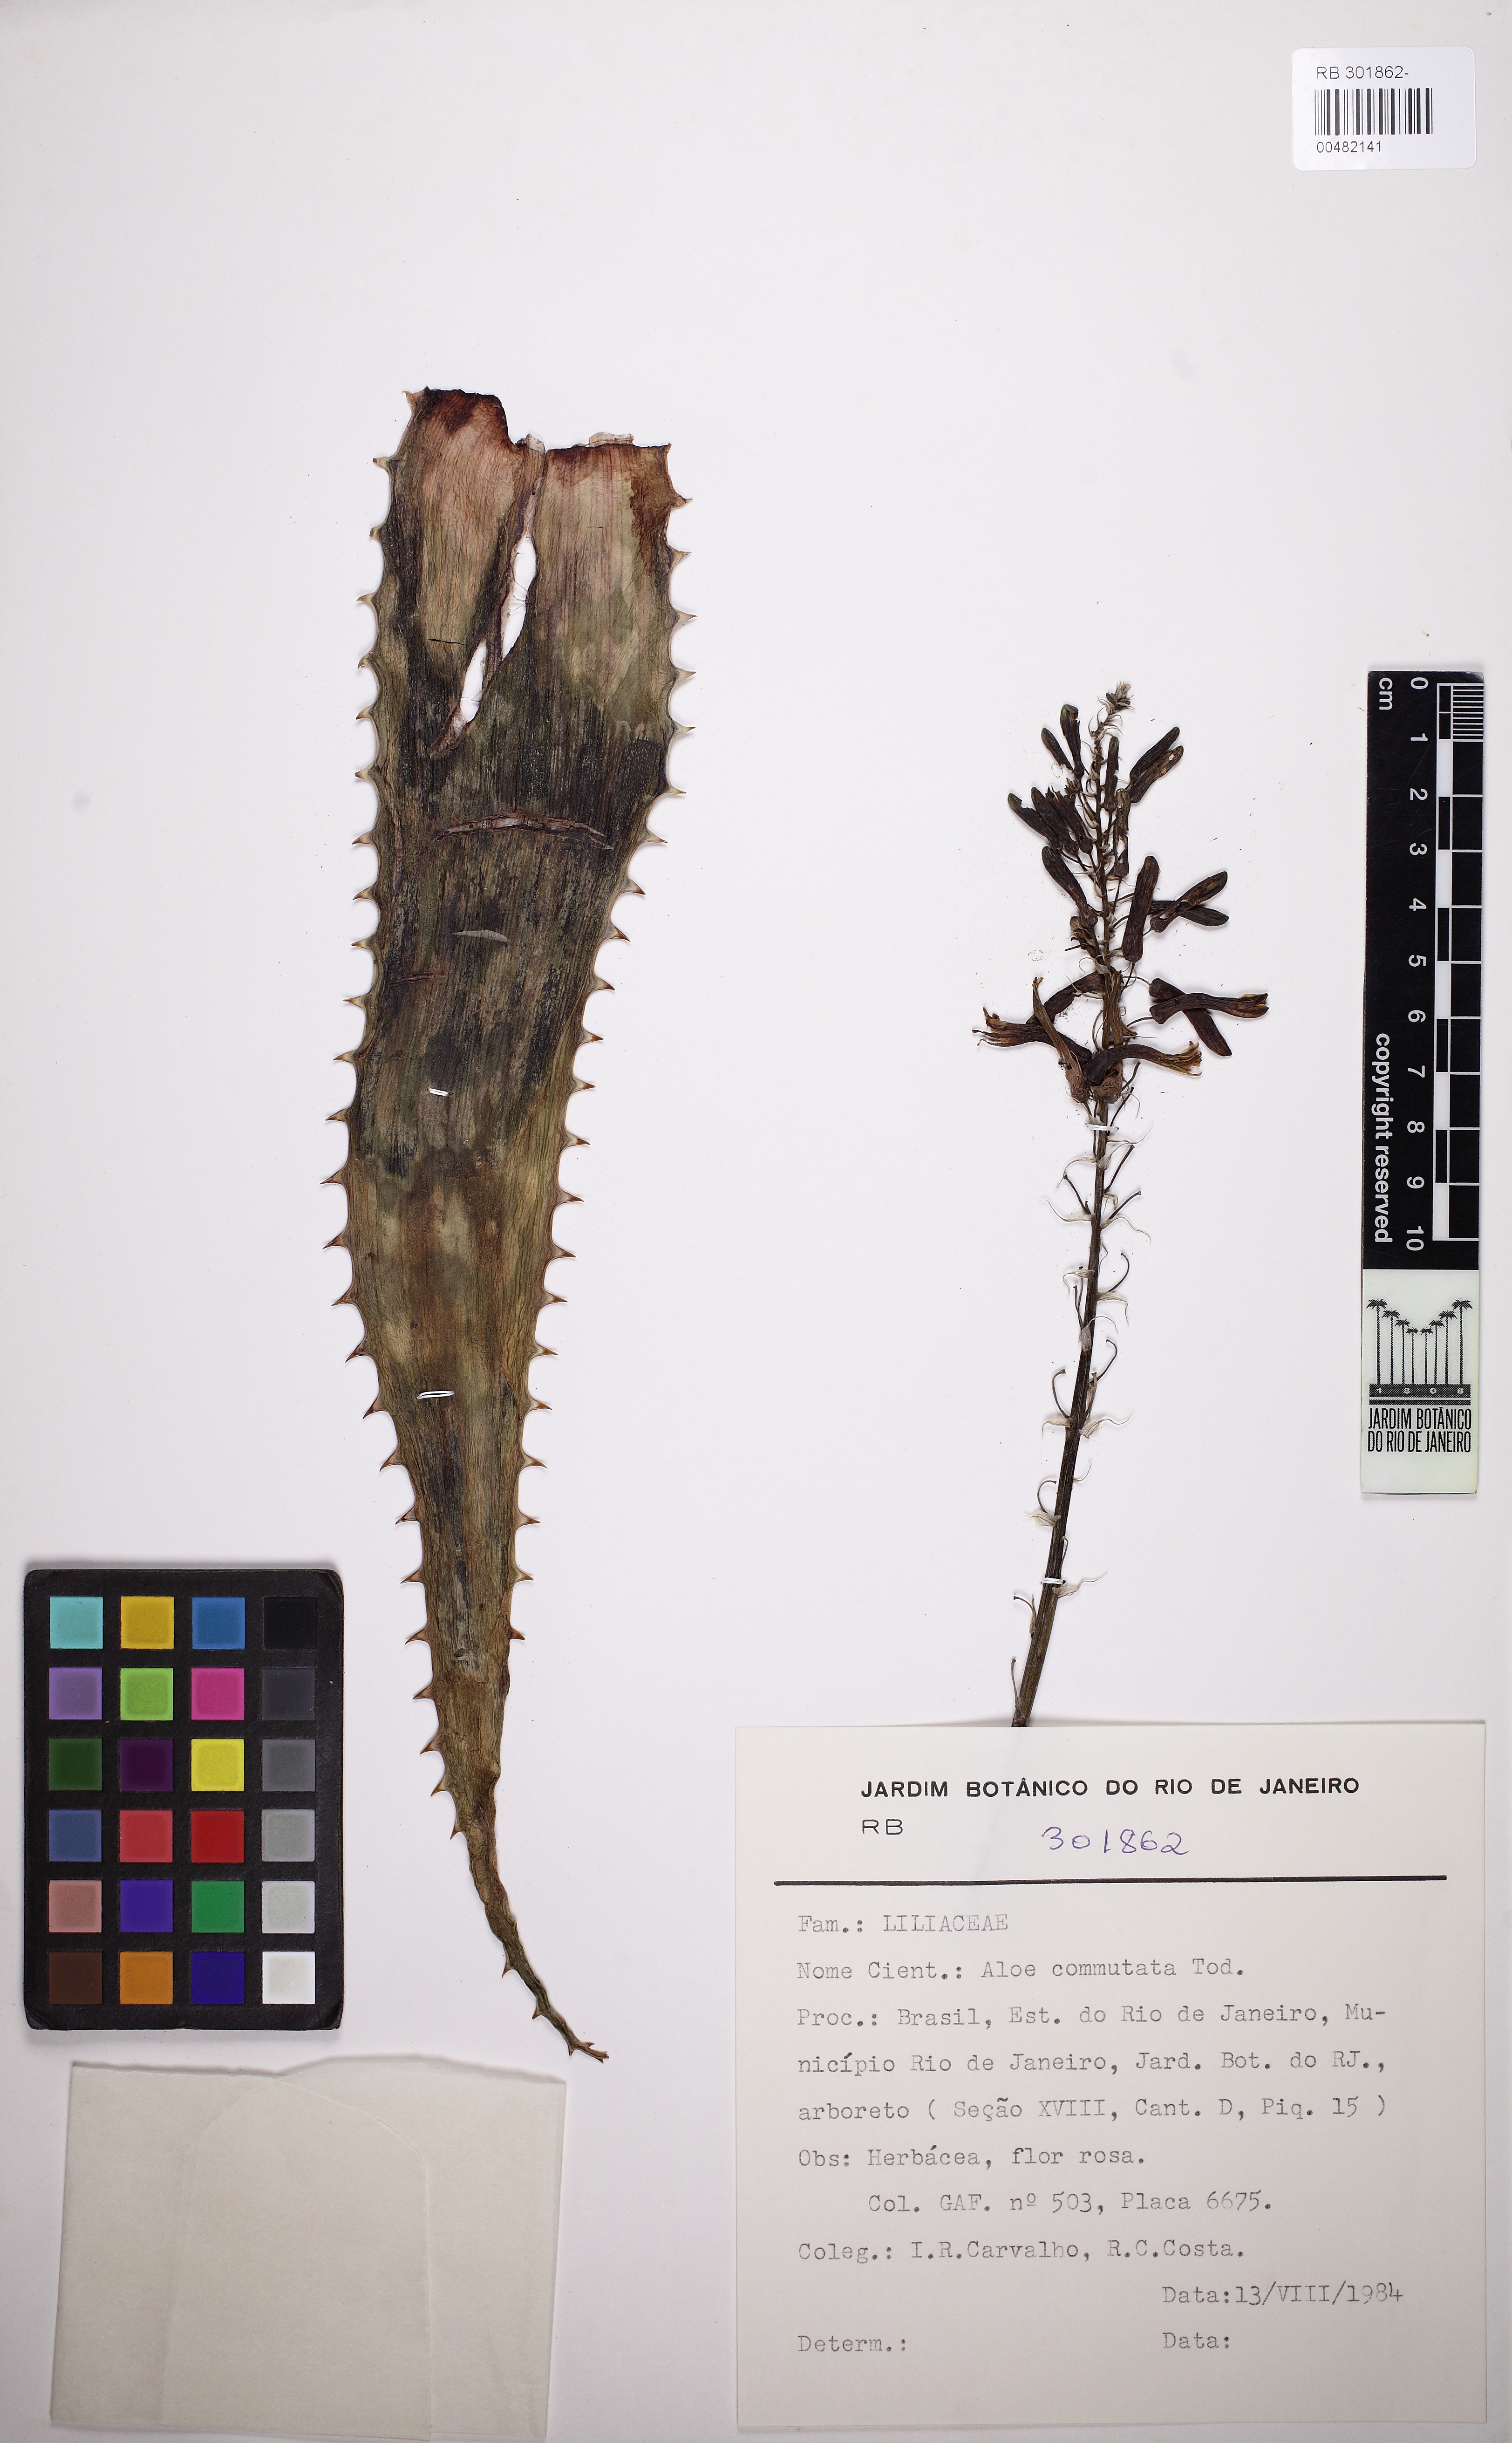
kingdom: Plantae
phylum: Tracheophyta
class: Liliopsida
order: Asparagales
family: Asphodelaceae
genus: Aloe
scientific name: Aloe commutata
